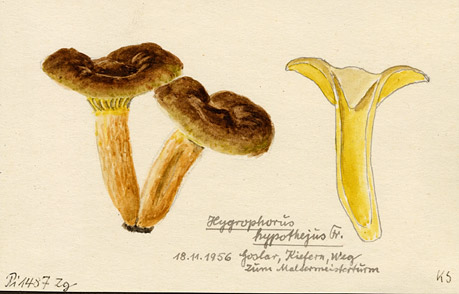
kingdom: Fungi
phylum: Basidiomycota
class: Agaricomycetes
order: Agaricales
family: Hygrophoraceae
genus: Hygrophorus
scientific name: Hygrophorus hypothejus
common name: Herald of winter
